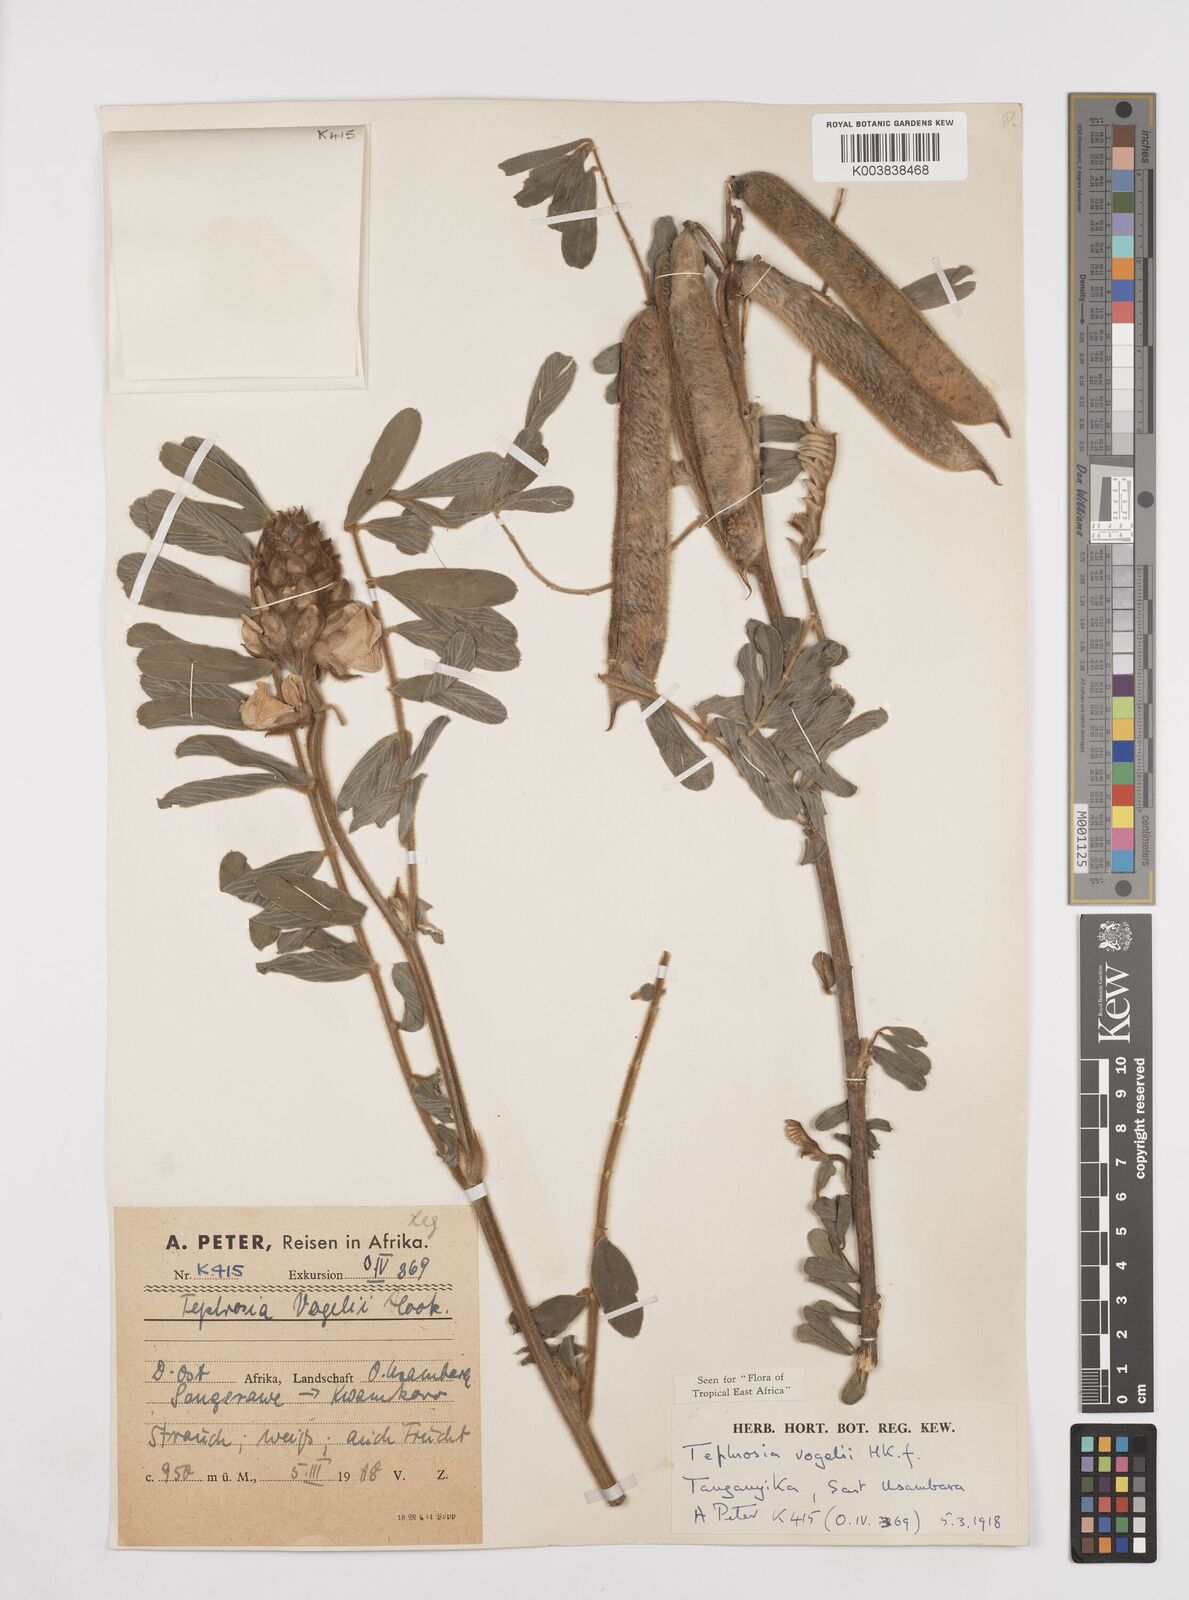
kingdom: Plantae
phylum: Tracheophyta
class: Magnoliopsida
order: Fabales
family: Fabaceae
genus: Tephrosia
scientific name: Tephrosia vogelii
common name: Vogel tephrosia
